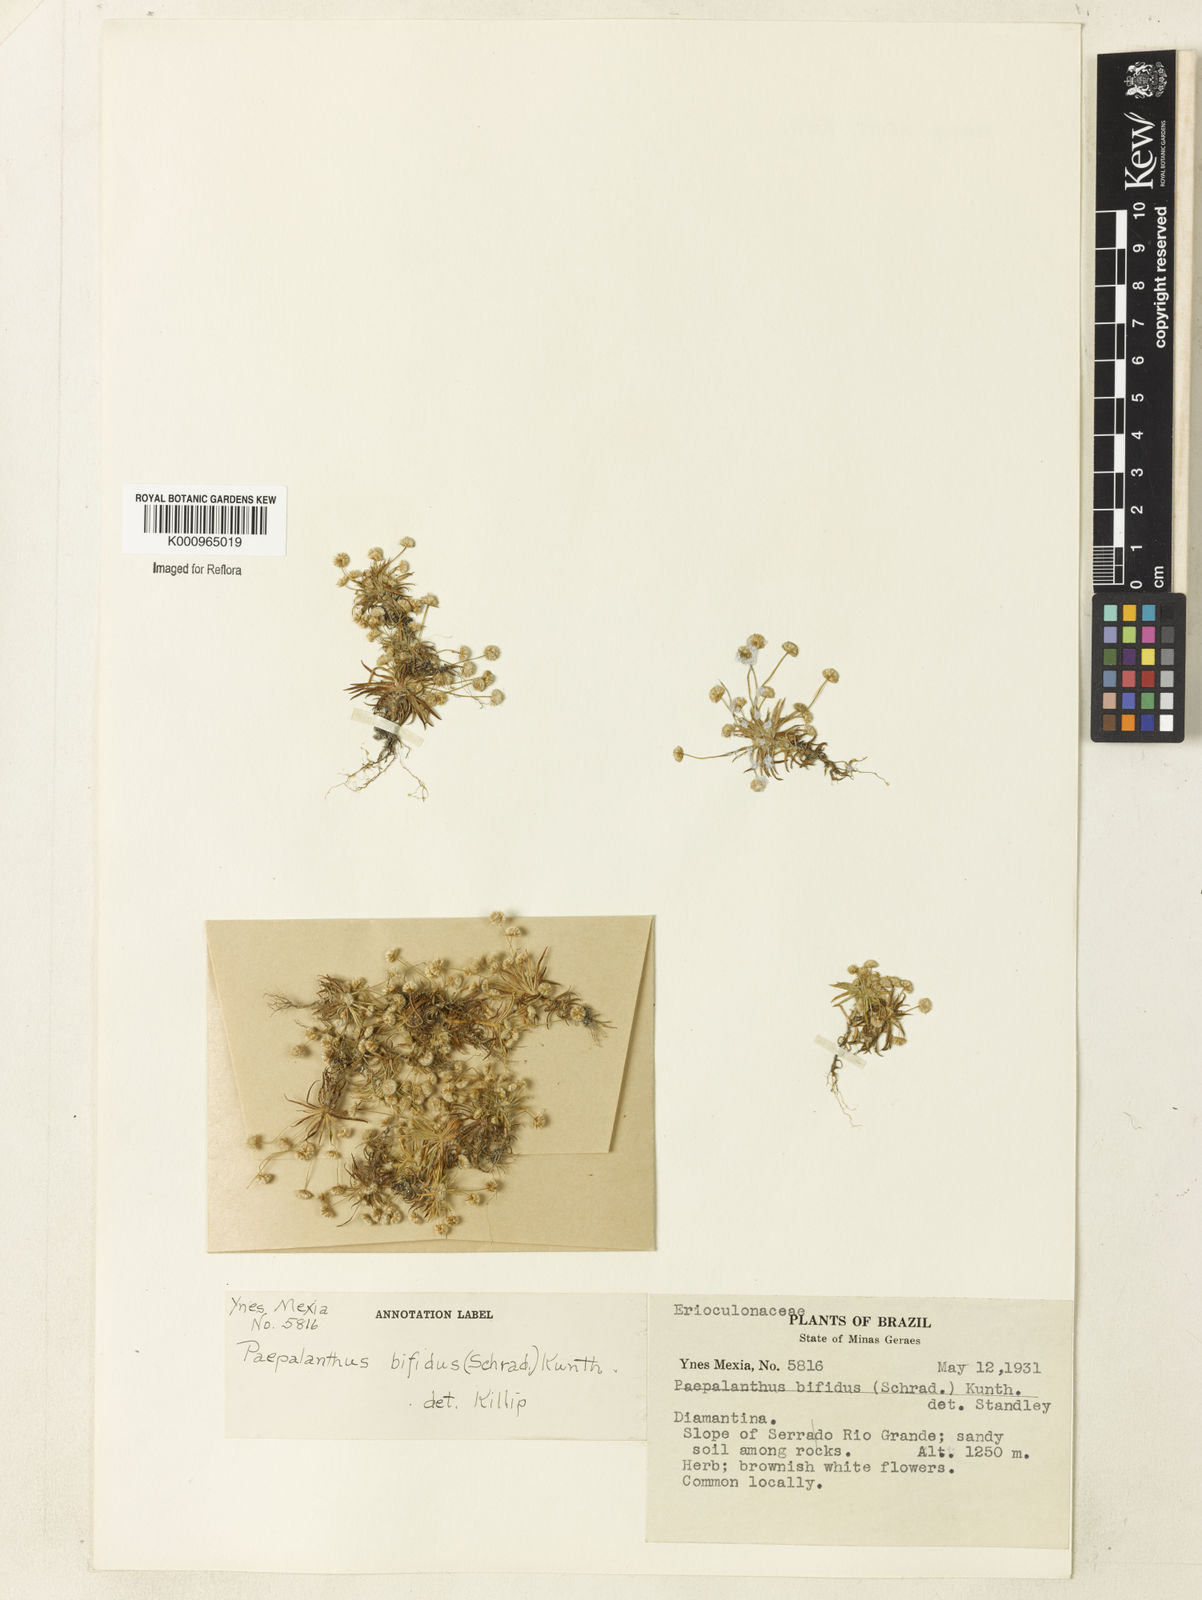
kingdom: Plantae
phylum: Tracheophyta
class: Liliopsida
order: Poales
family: Eriocaulaceae
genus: Paepalanthus
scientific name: Paepalanthus bifidus
